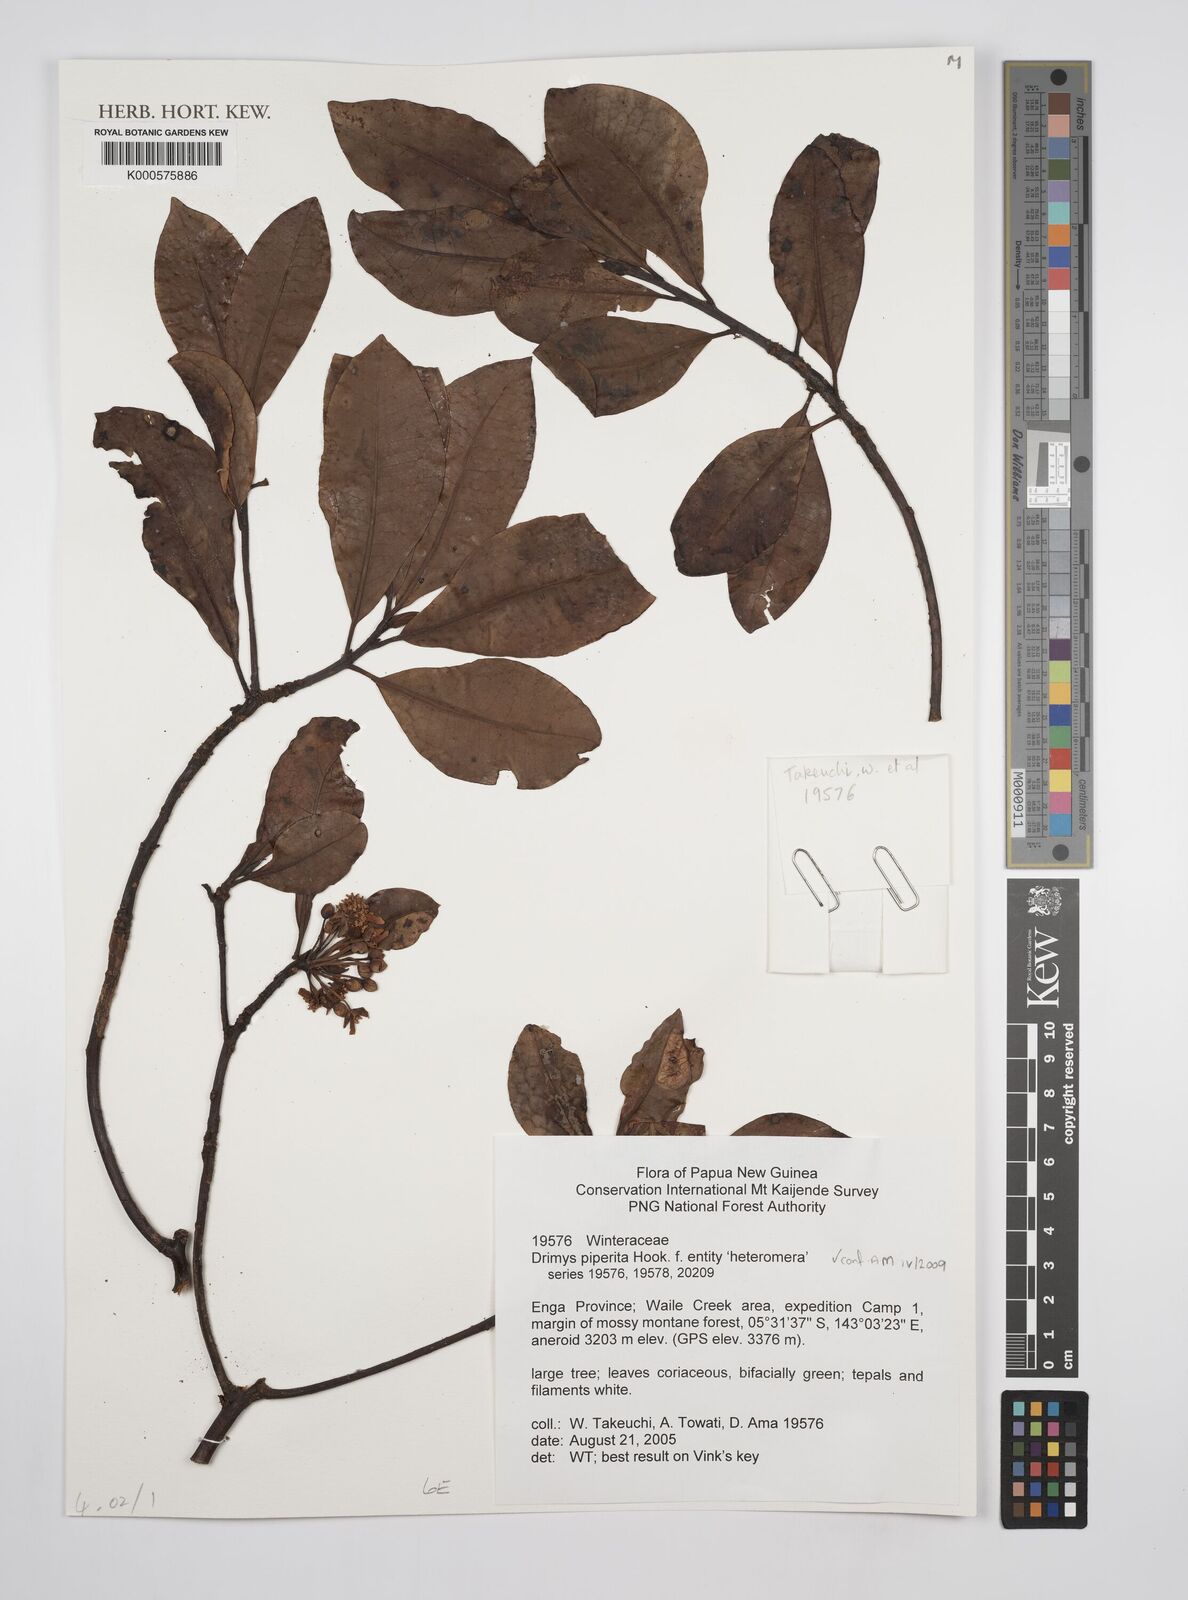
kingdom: Plantae
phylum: Tracheophyta
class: Magnoliopsida
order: Canellales
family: Winteraceae
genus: Drimys
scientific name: Drimys piperita
